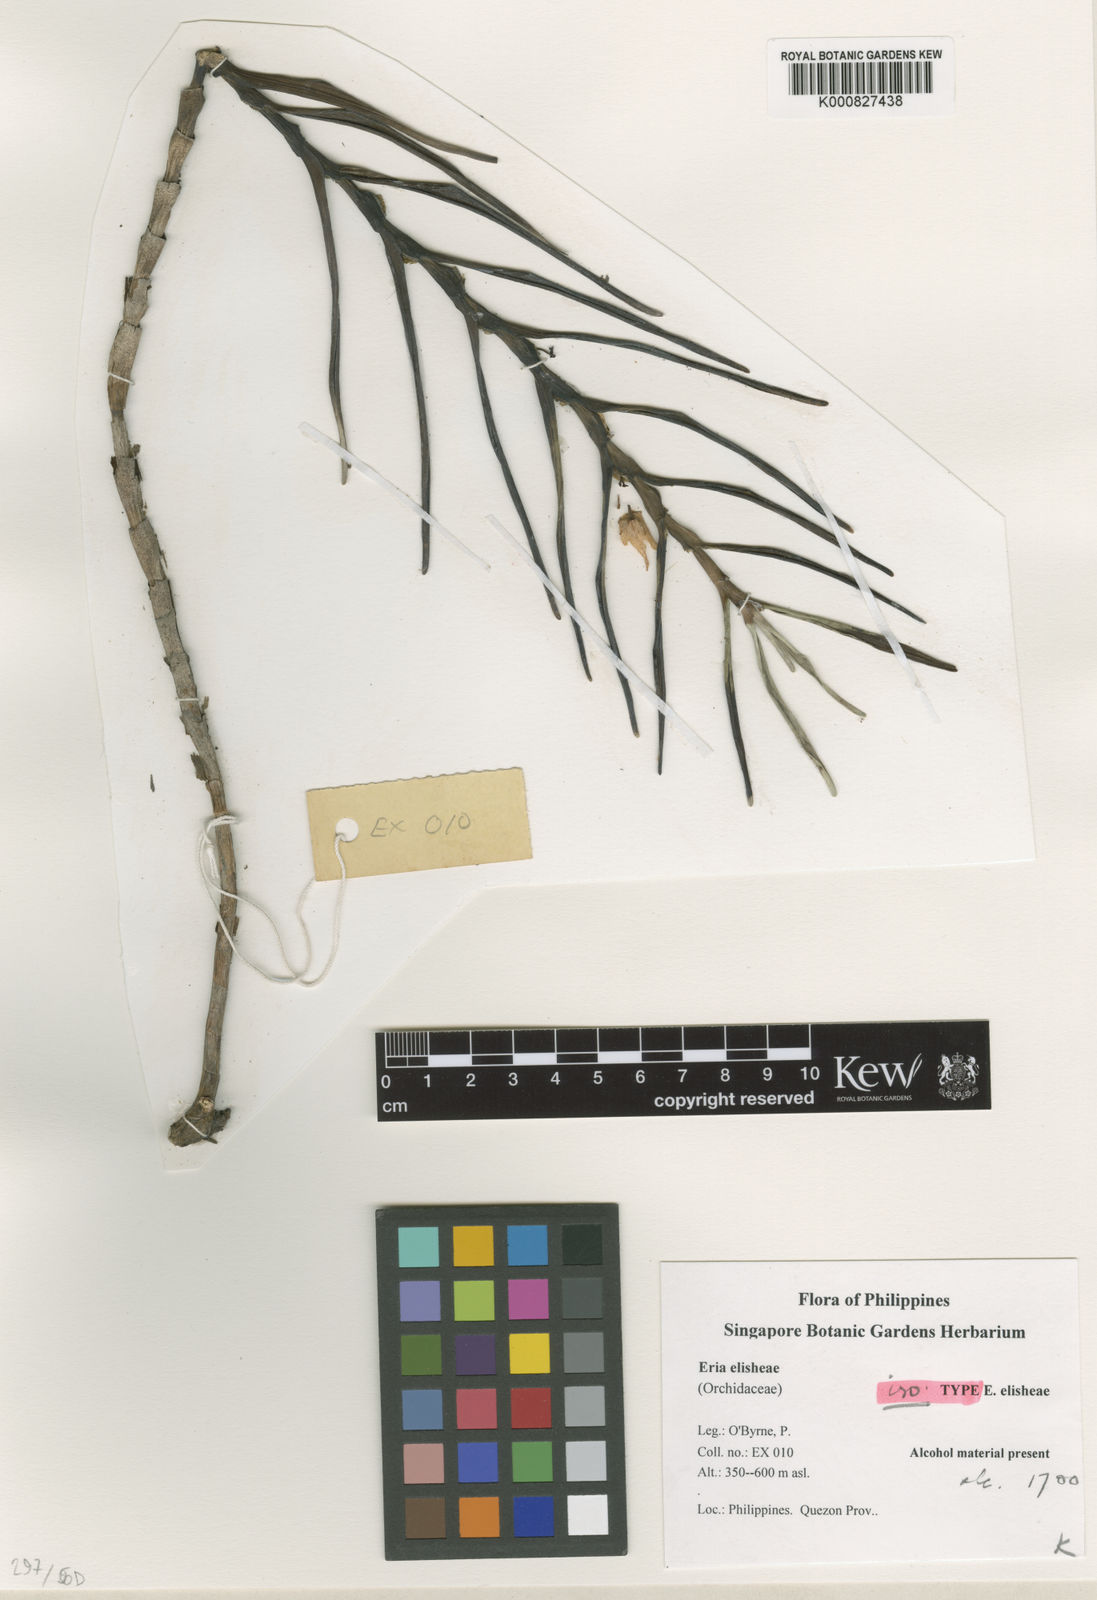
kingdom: Plantae
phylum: Tracheophyta
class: Liliopsida
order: Asparagales
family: Orchidaceae
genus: Cylindrolobus
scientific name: Cylindrolobus elisheae
